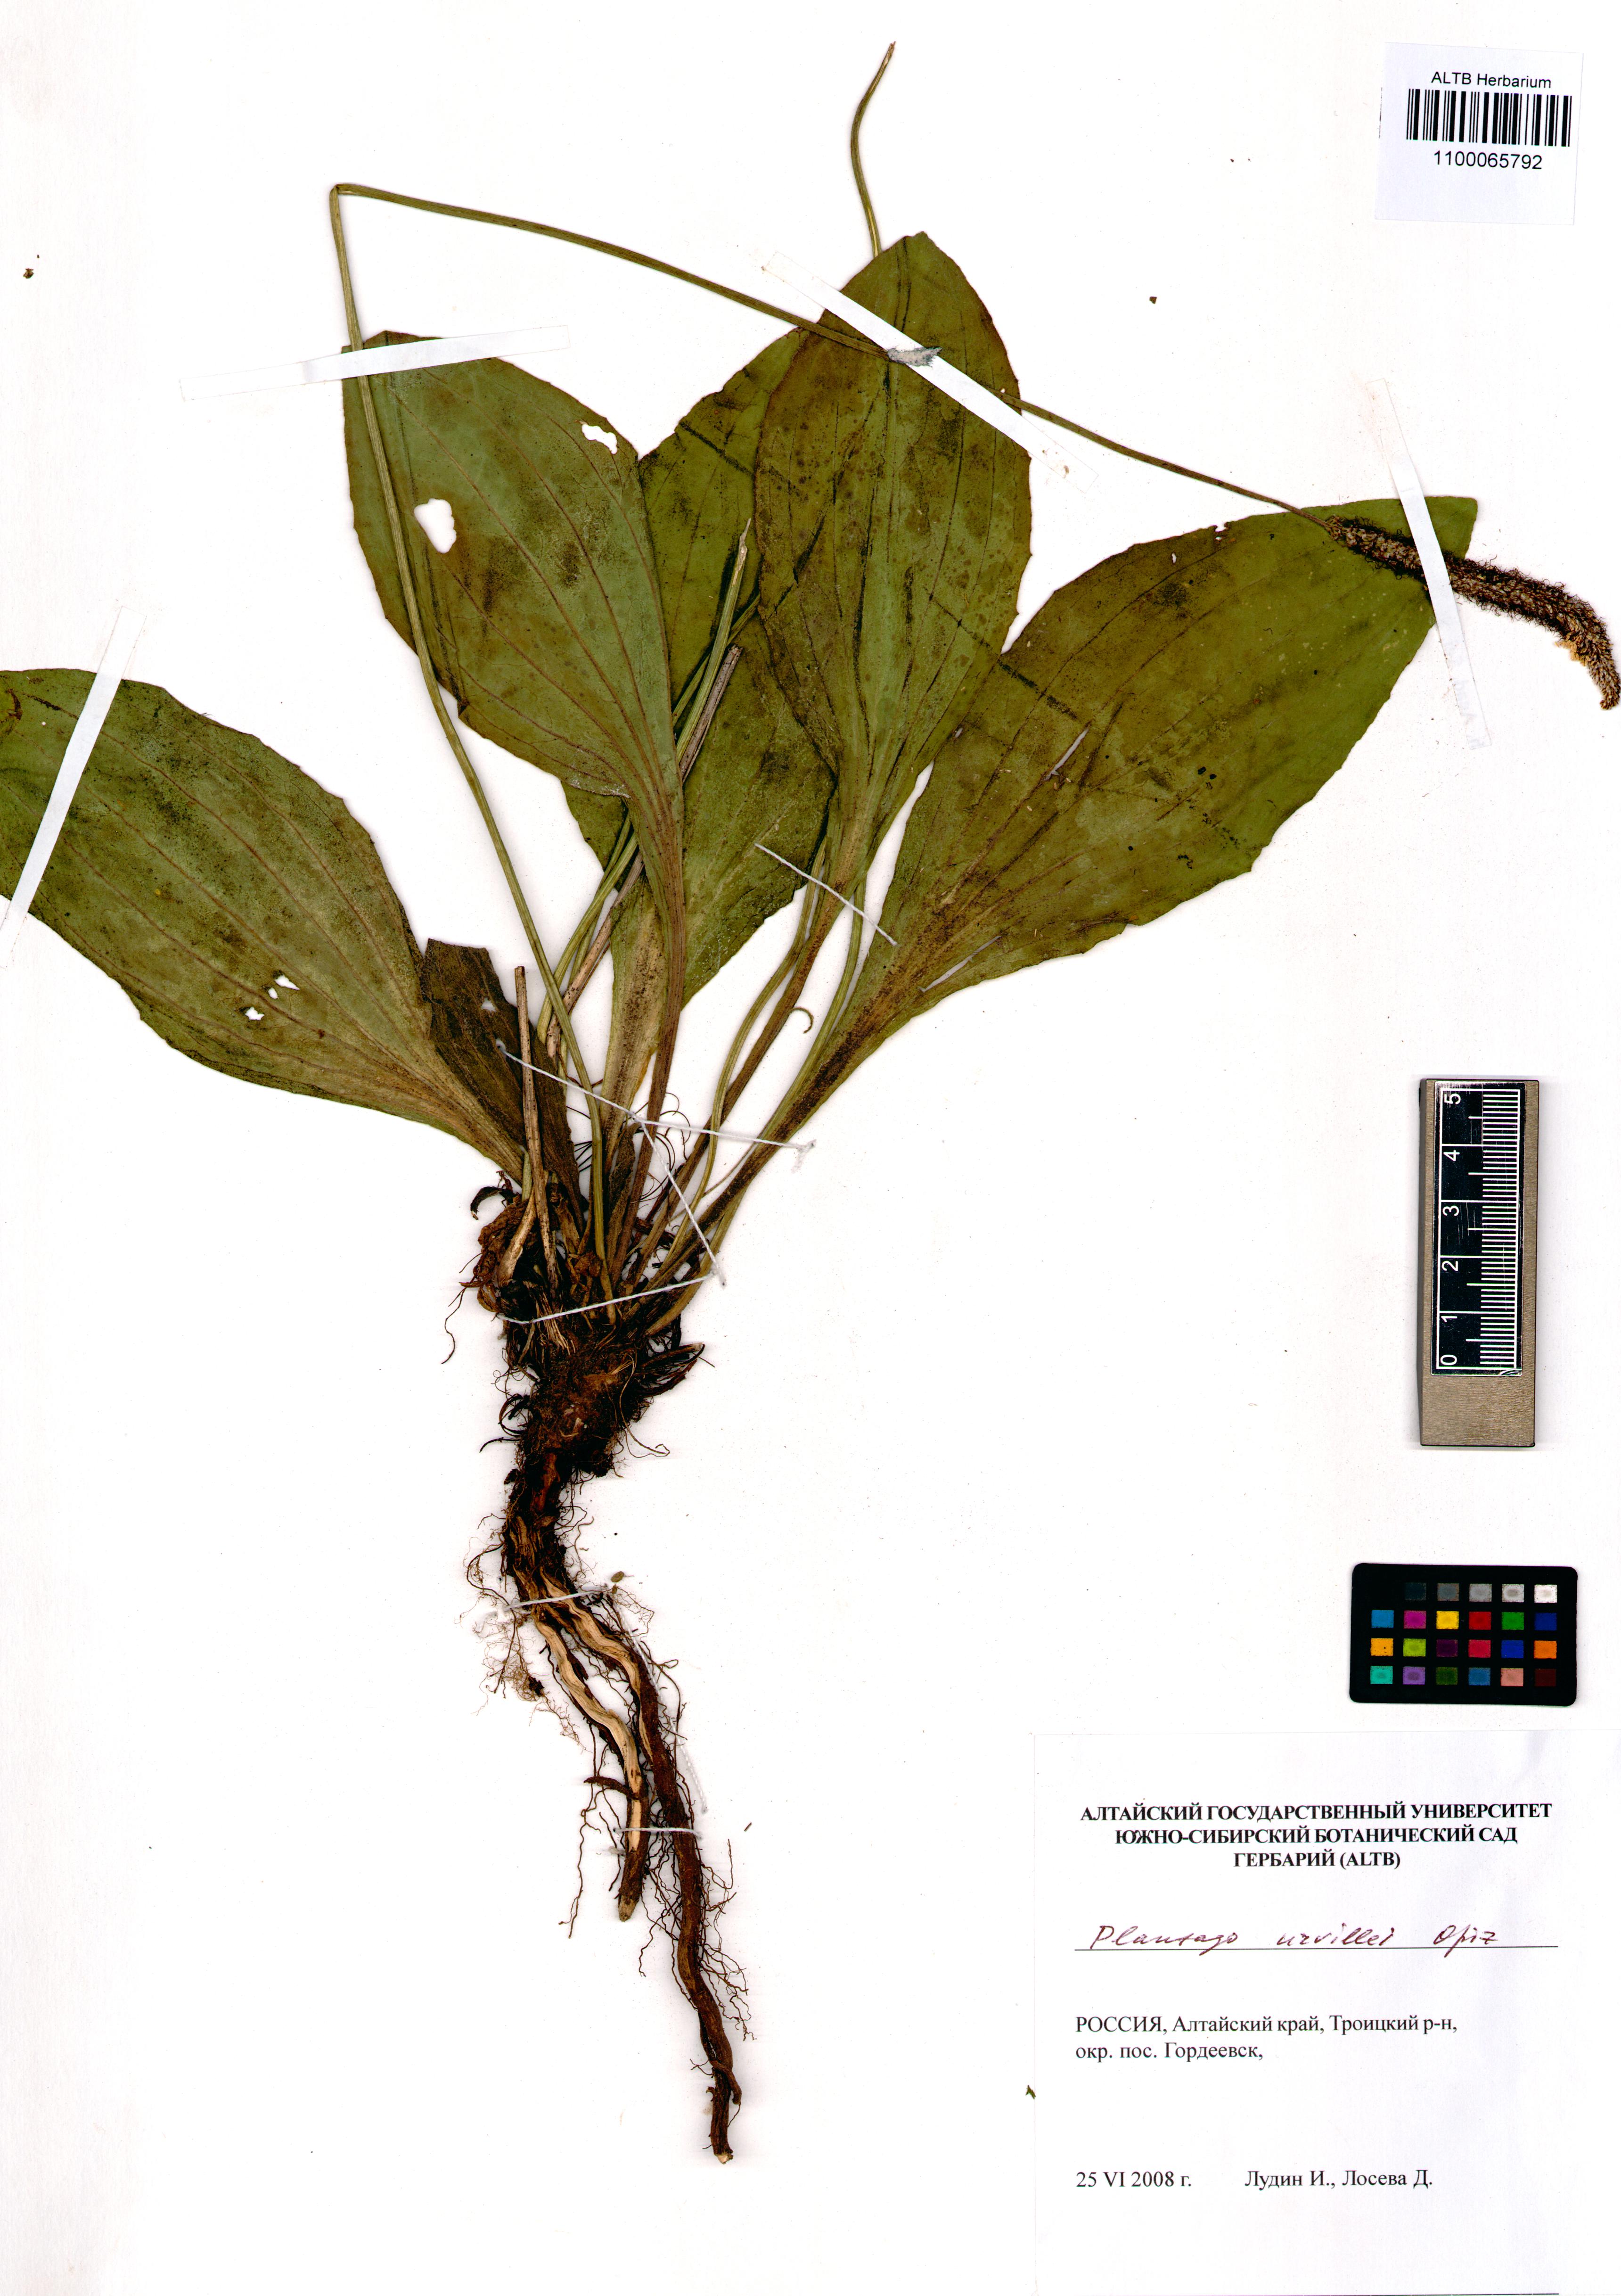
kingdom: Plantae
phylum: Tracheophyta
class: Magnoliopsida
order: Lamiales
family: Plantaginaceae
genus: Plantago
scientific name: Plantago urvillei
